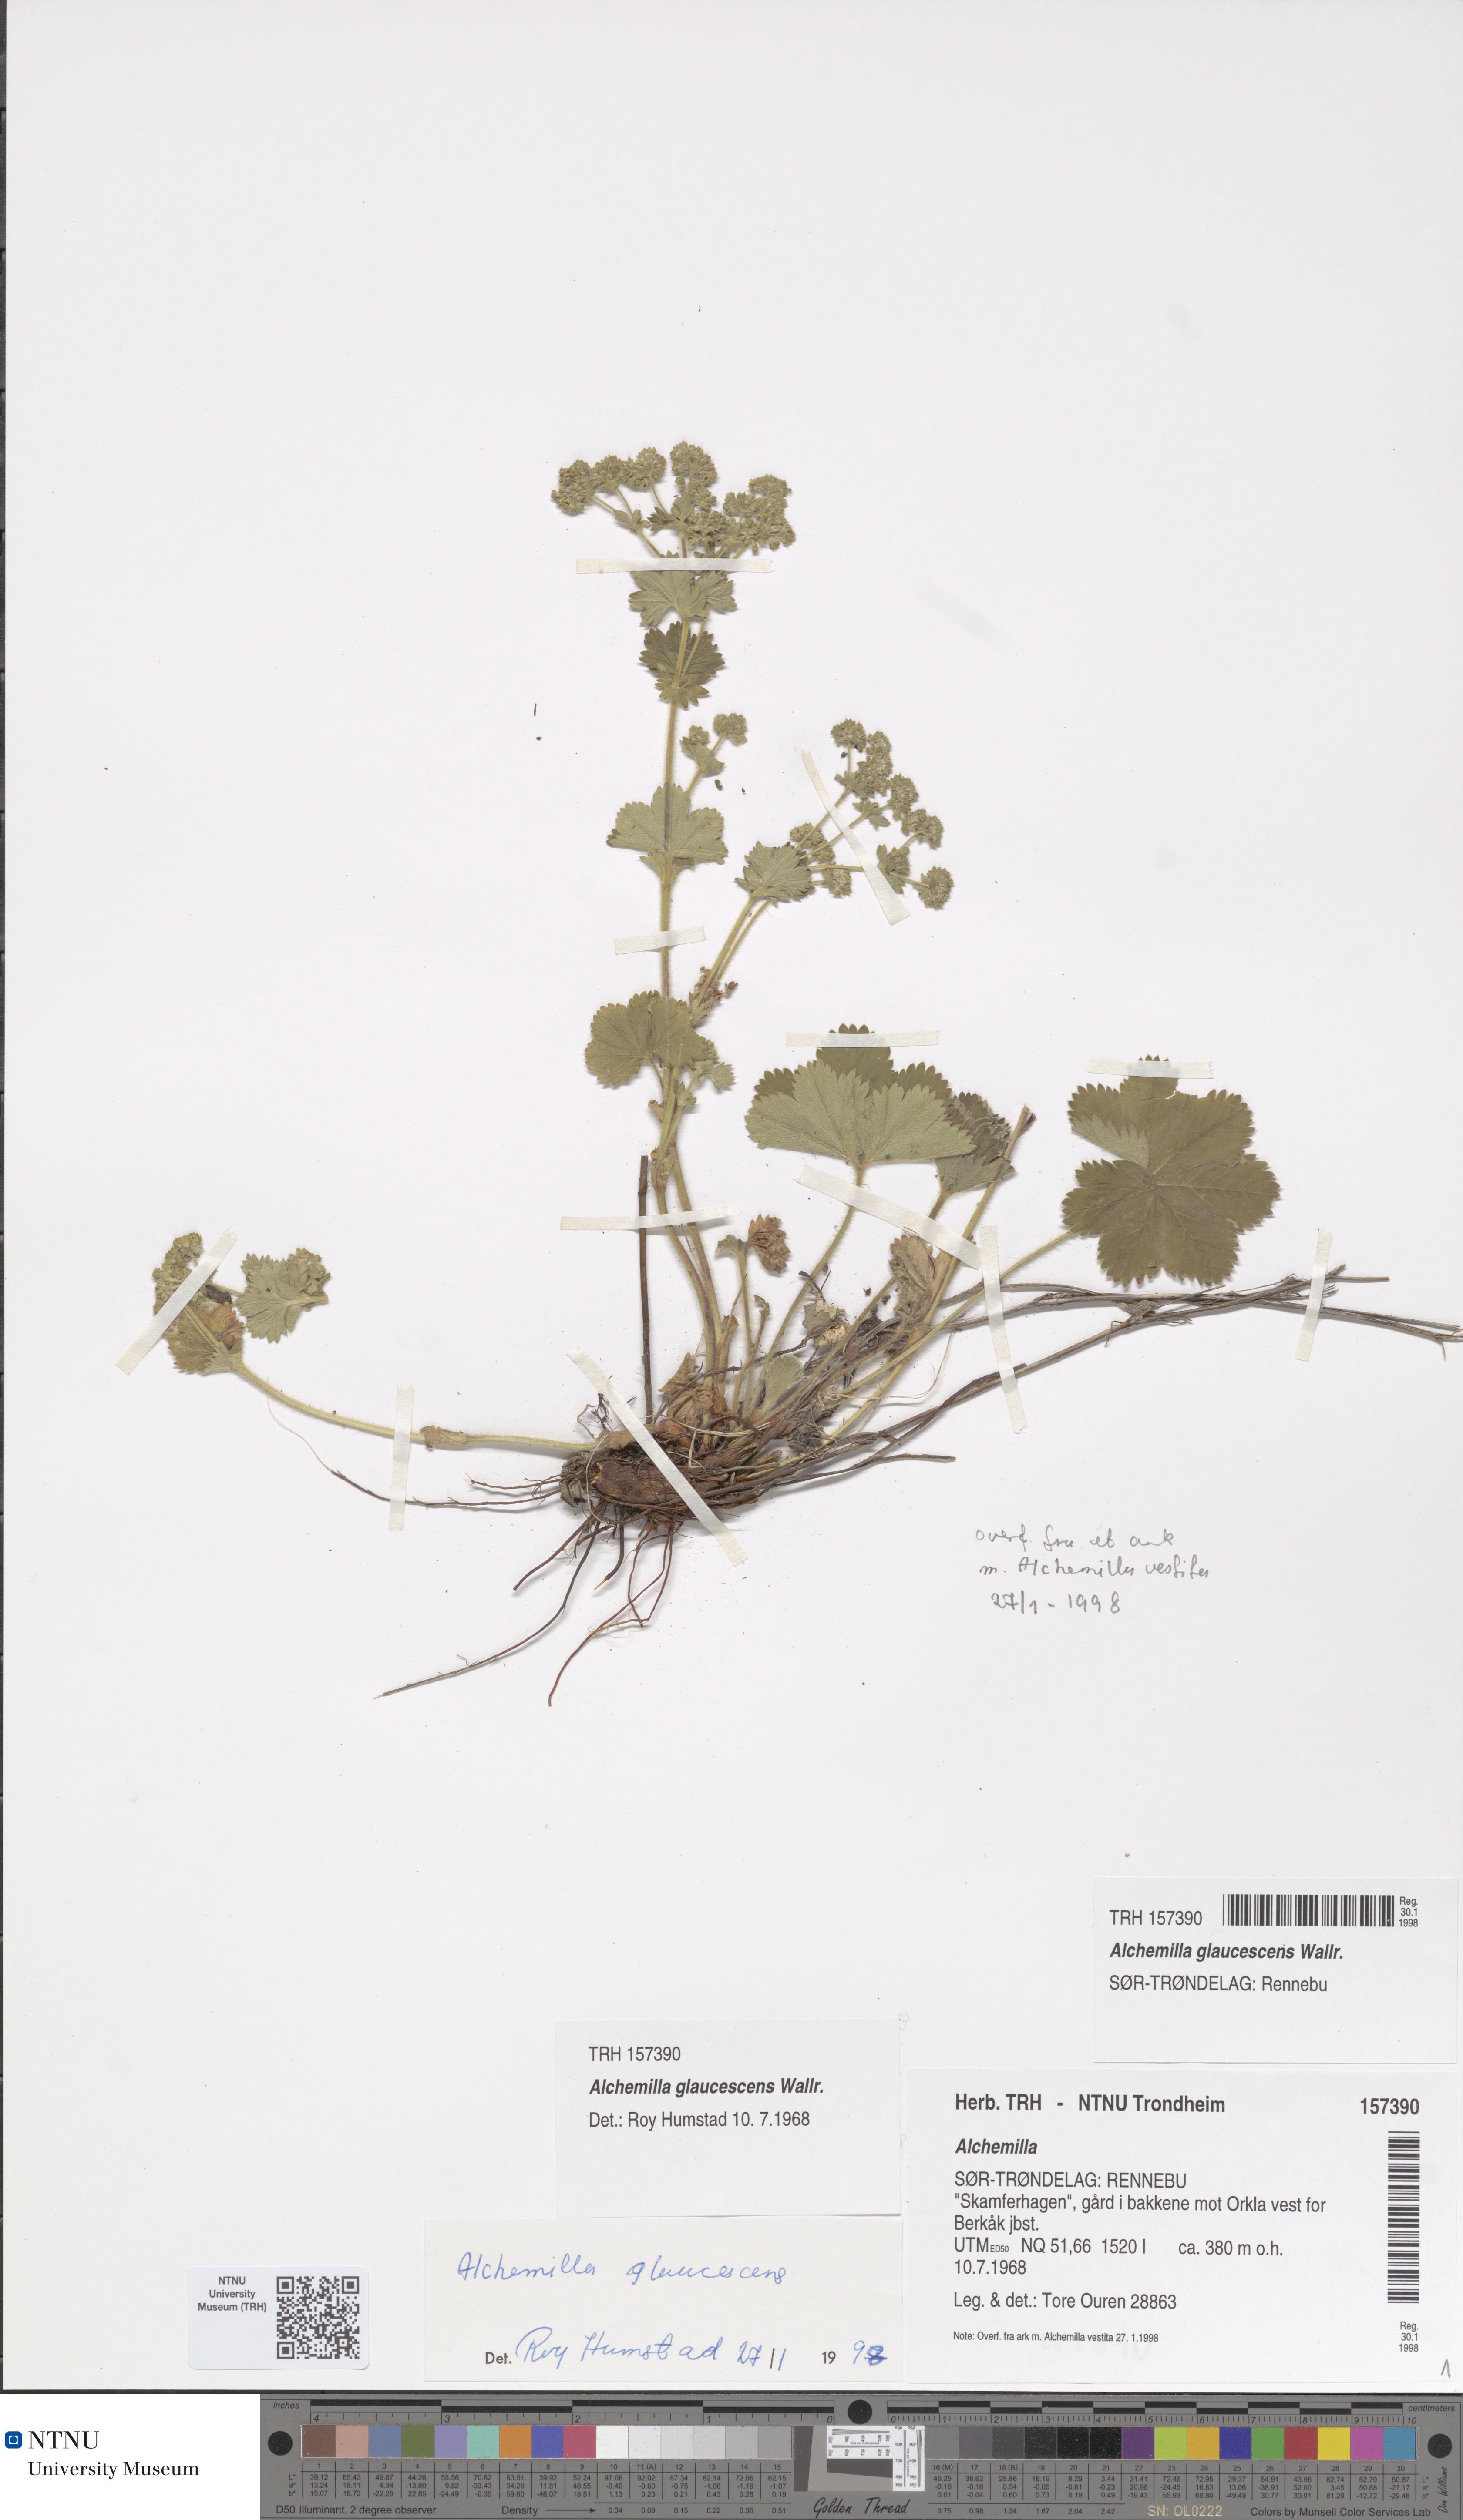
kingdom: Plantae
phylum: Tracheophyta
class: Magnoliopsida
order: Rosales
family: Rosaceae
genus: Alchemilla
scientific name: Alchemilla glaucescens
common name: Silky lady's mantle
